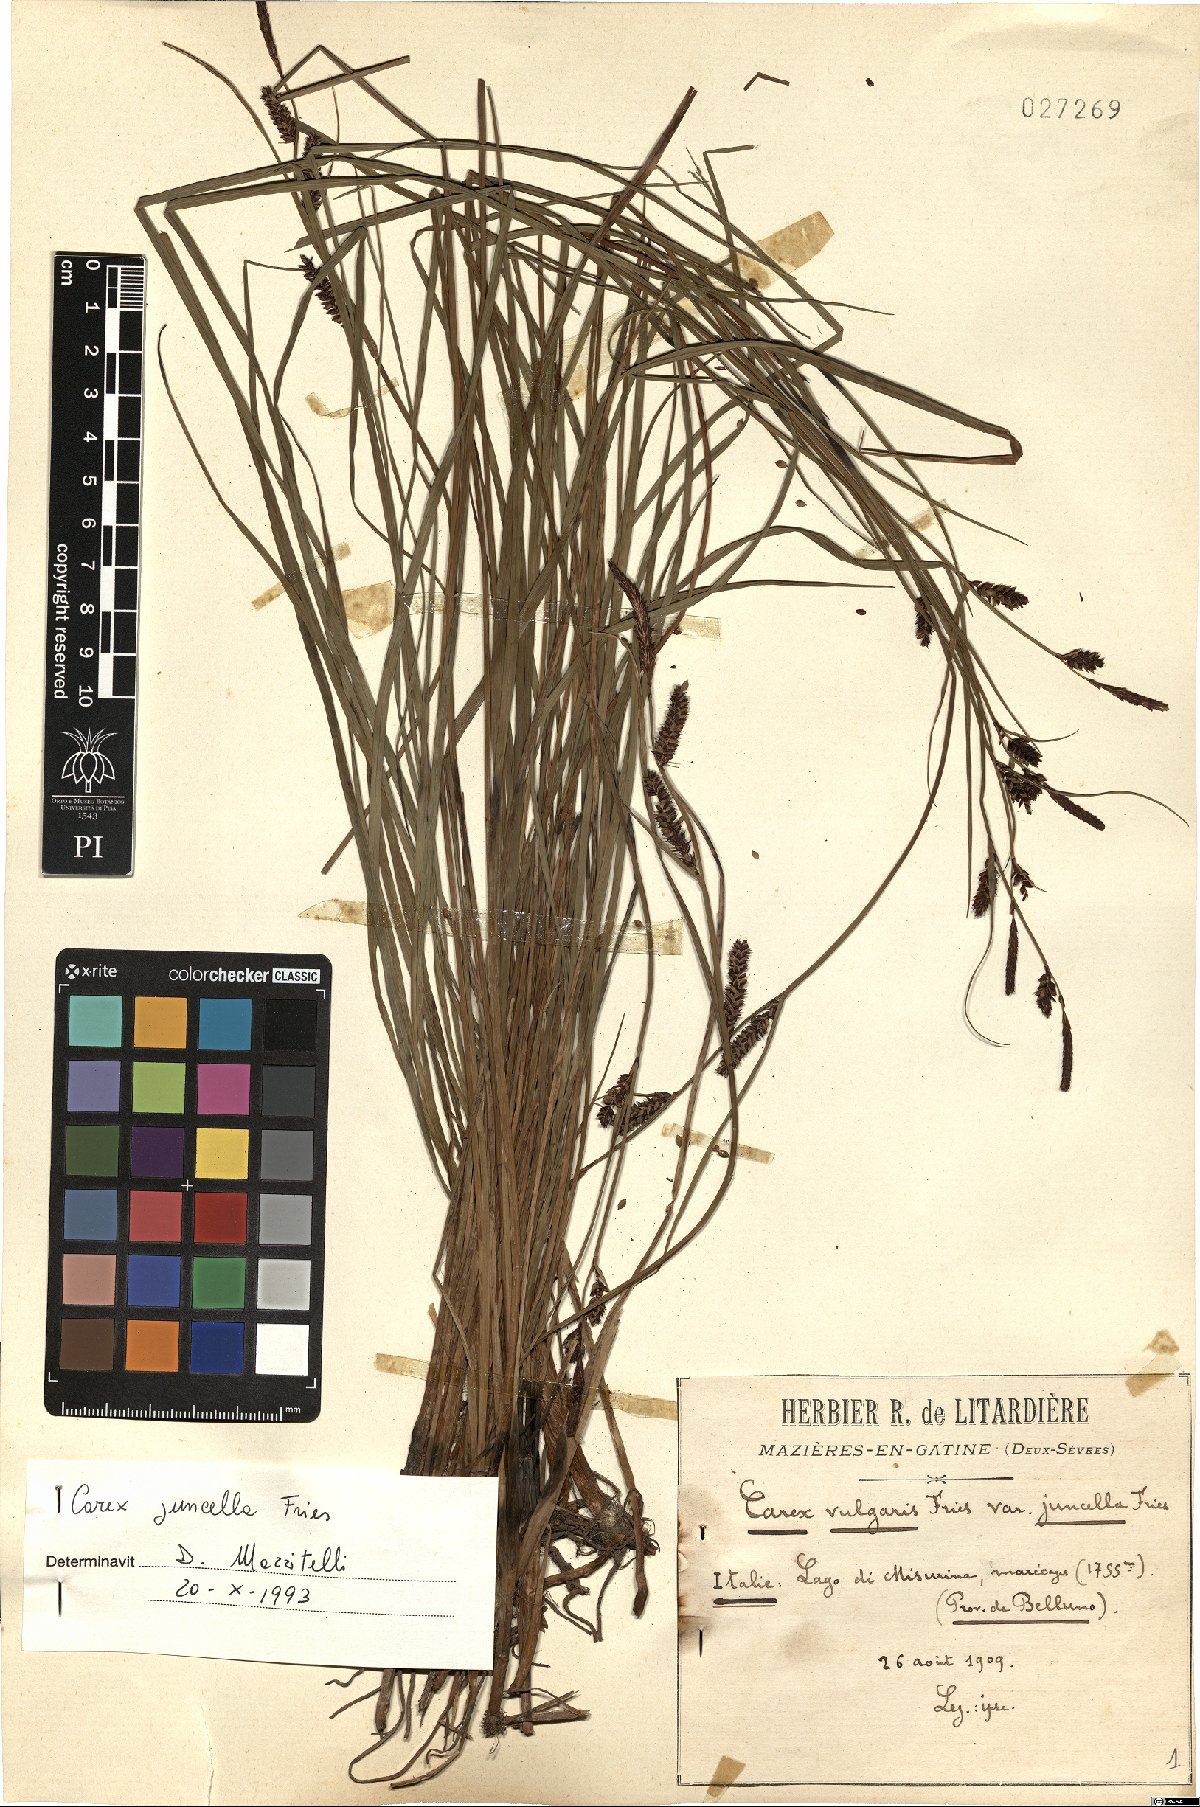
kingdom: Plantae
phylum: Tracheophyta
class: Liliopsida
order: Poales
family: Cyperaceae
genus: Carex
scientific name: Carex nigra
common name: Common sedge
